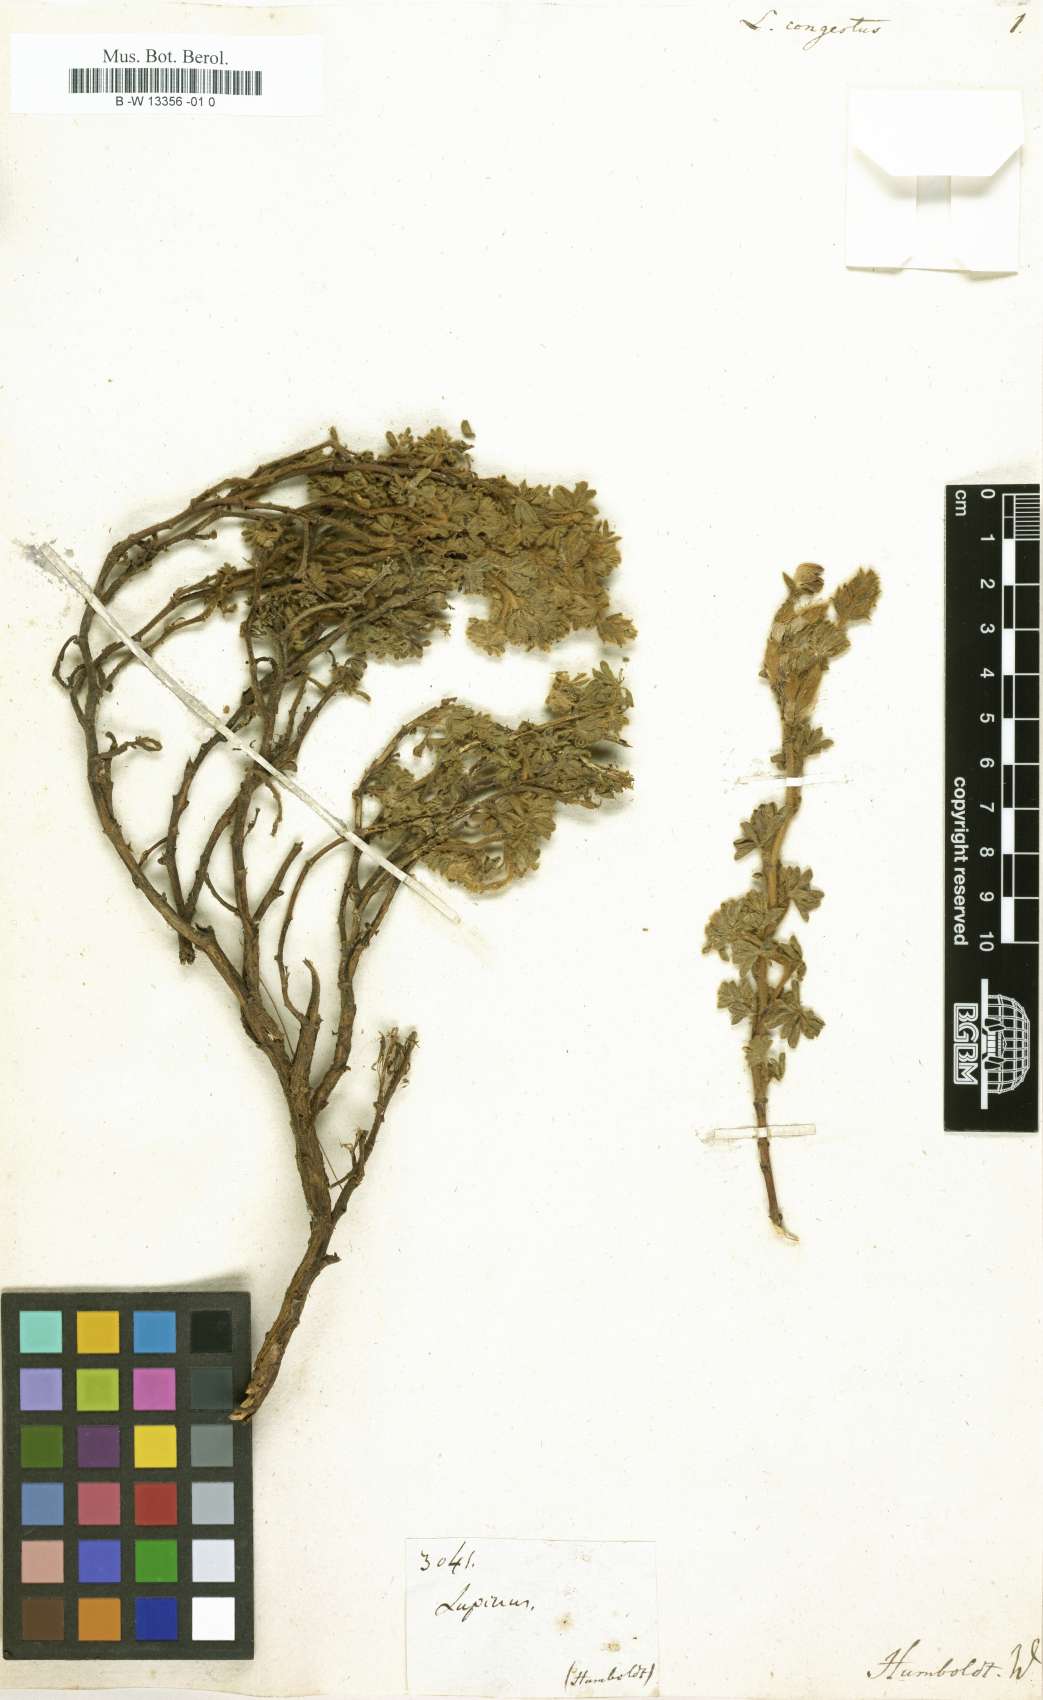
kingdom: Plantae
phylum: Tracheophyta
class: Magnoliopsida
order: Fabales
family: Fabaceae
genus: Lupinus
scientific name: Lupinus confertus
